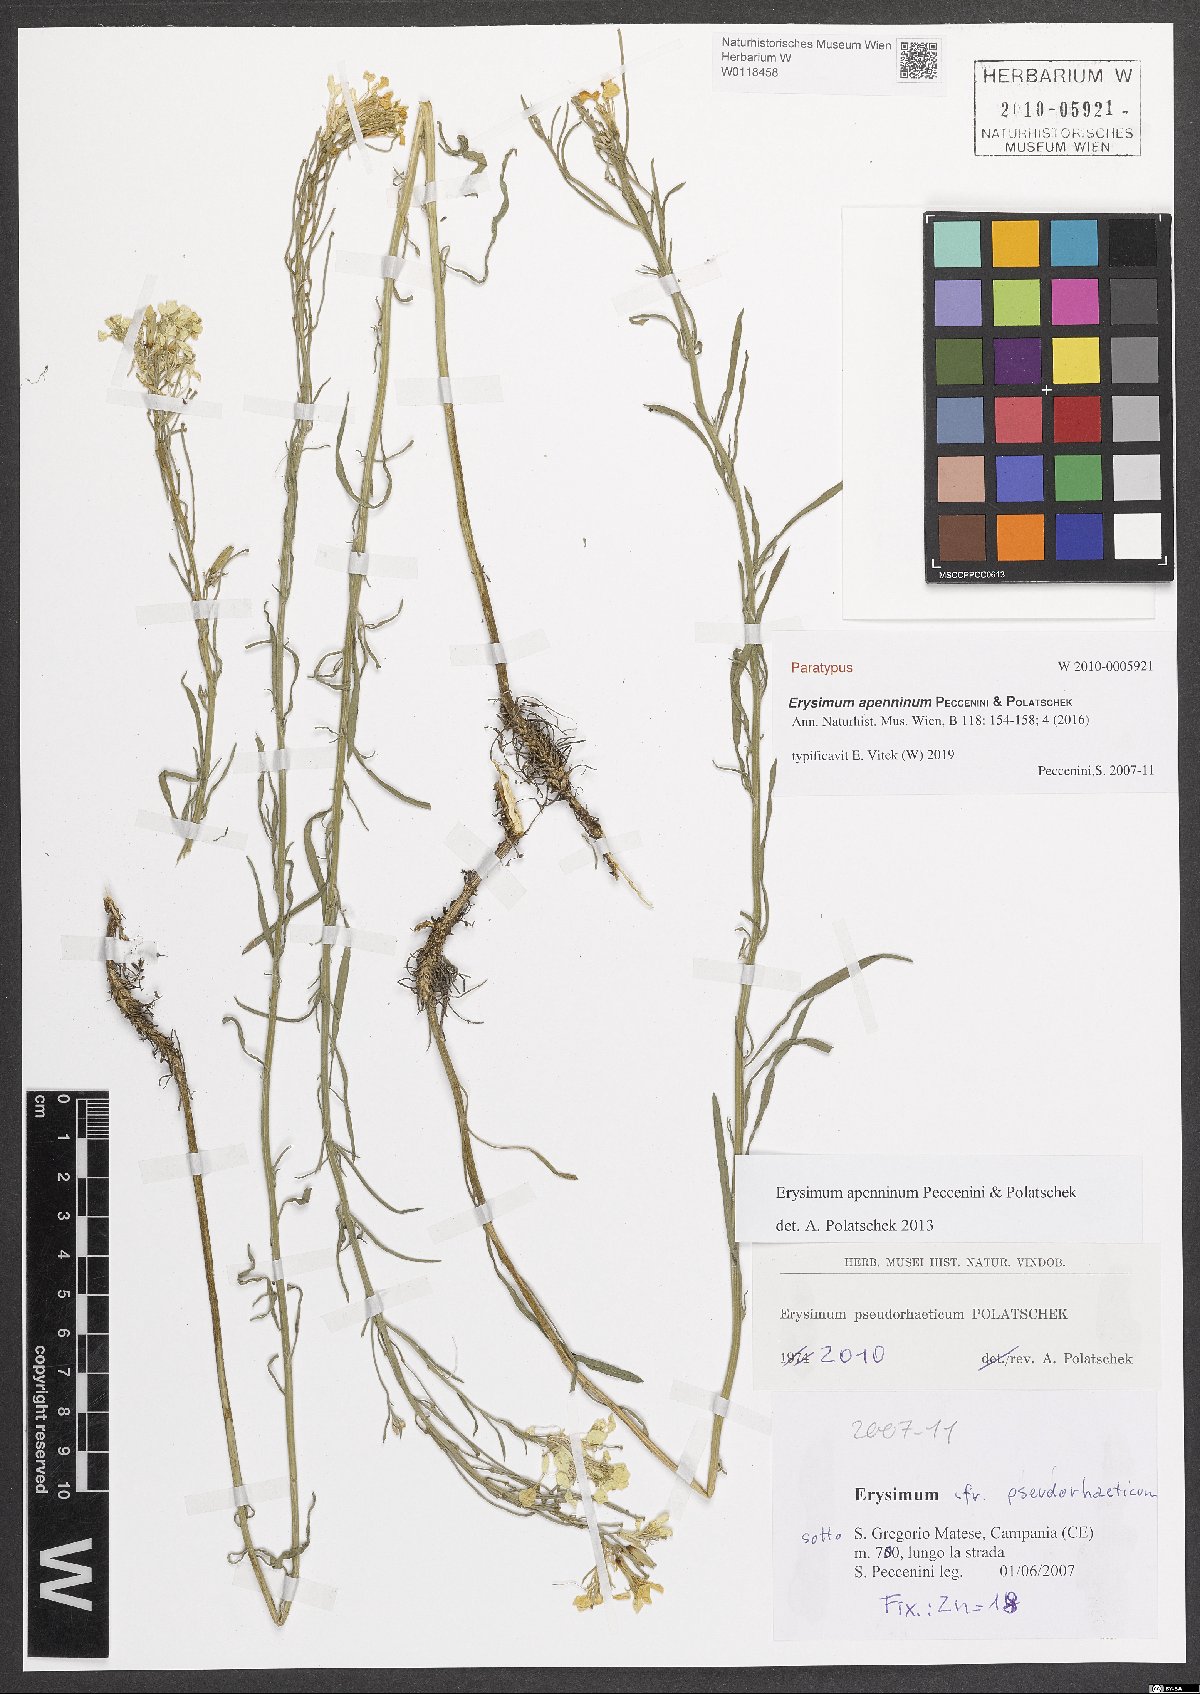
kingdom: Plantae
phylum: Tracheophyta
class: Magnoliopsida
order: Brassicales
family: Brassicaceae
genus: Erysimum
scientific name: Erysimum apenninum
